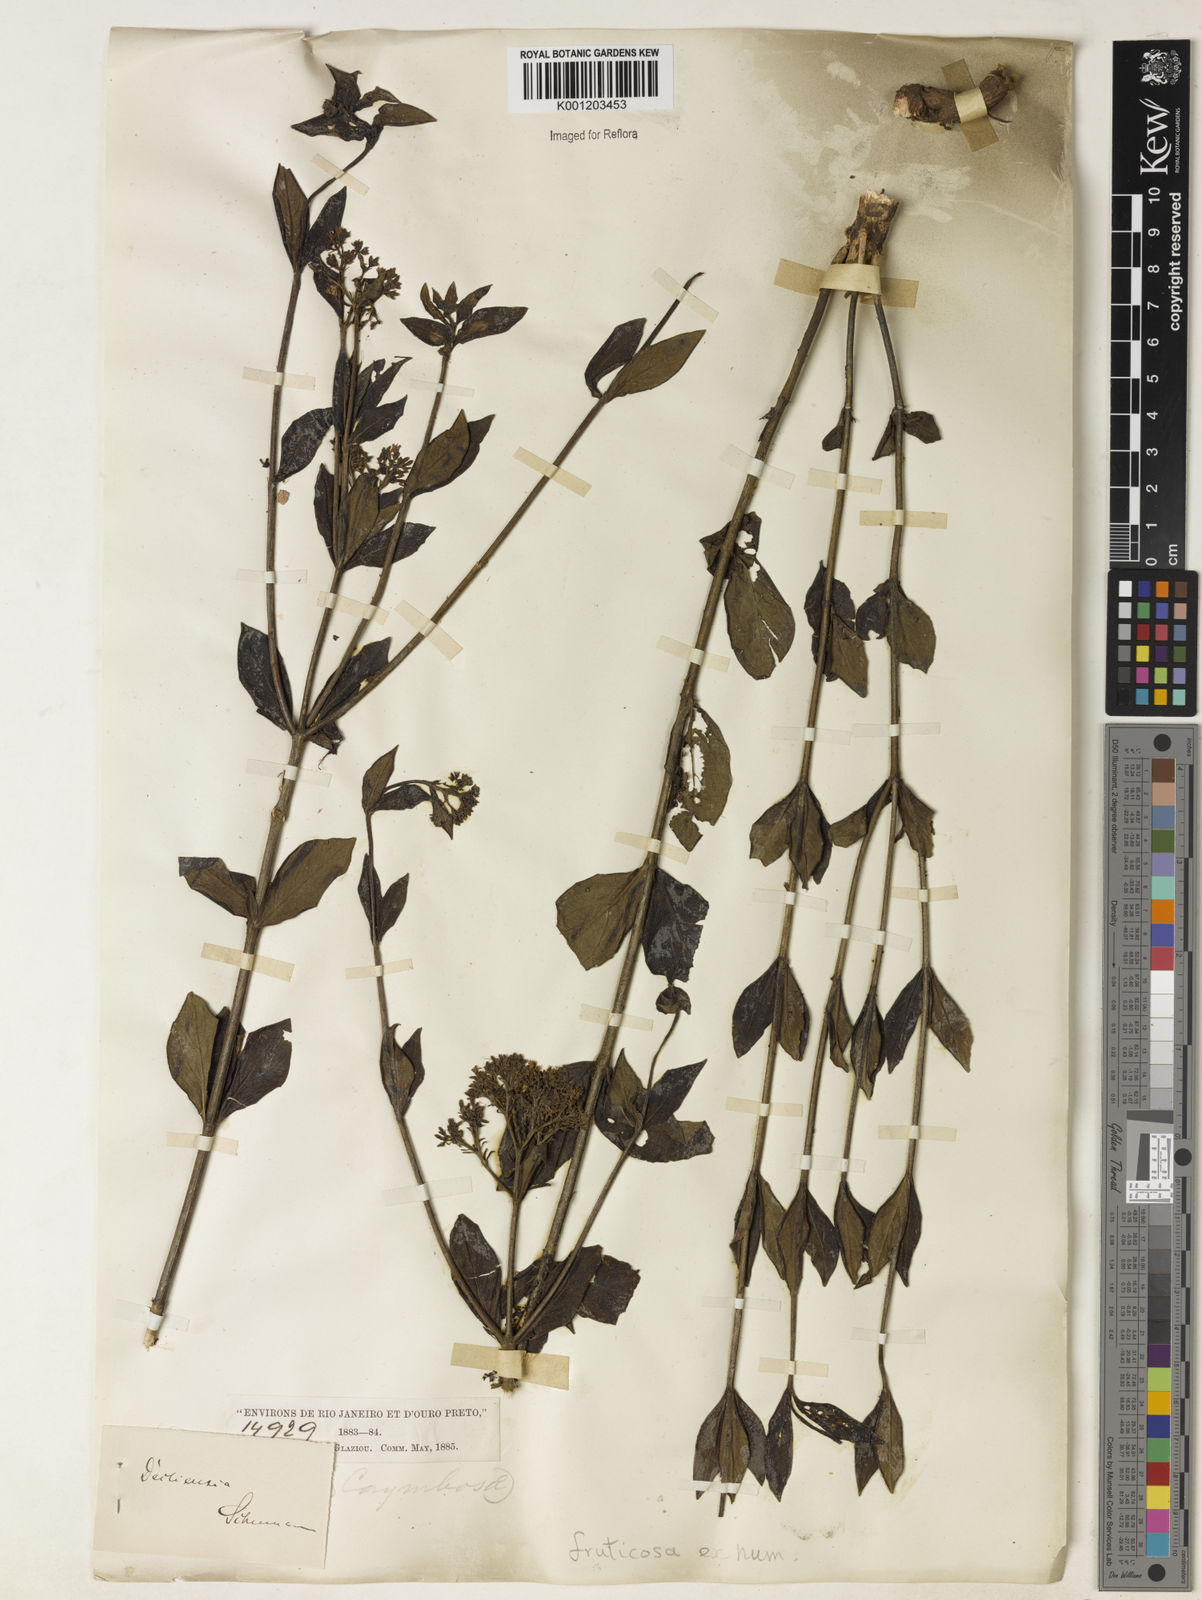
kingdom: Plantae
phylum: Tracheophyta
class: Magnoliopsida
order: Gentianales
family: Rubiaceae
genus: Declieuxia
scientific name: Declieuxia fruticosa
